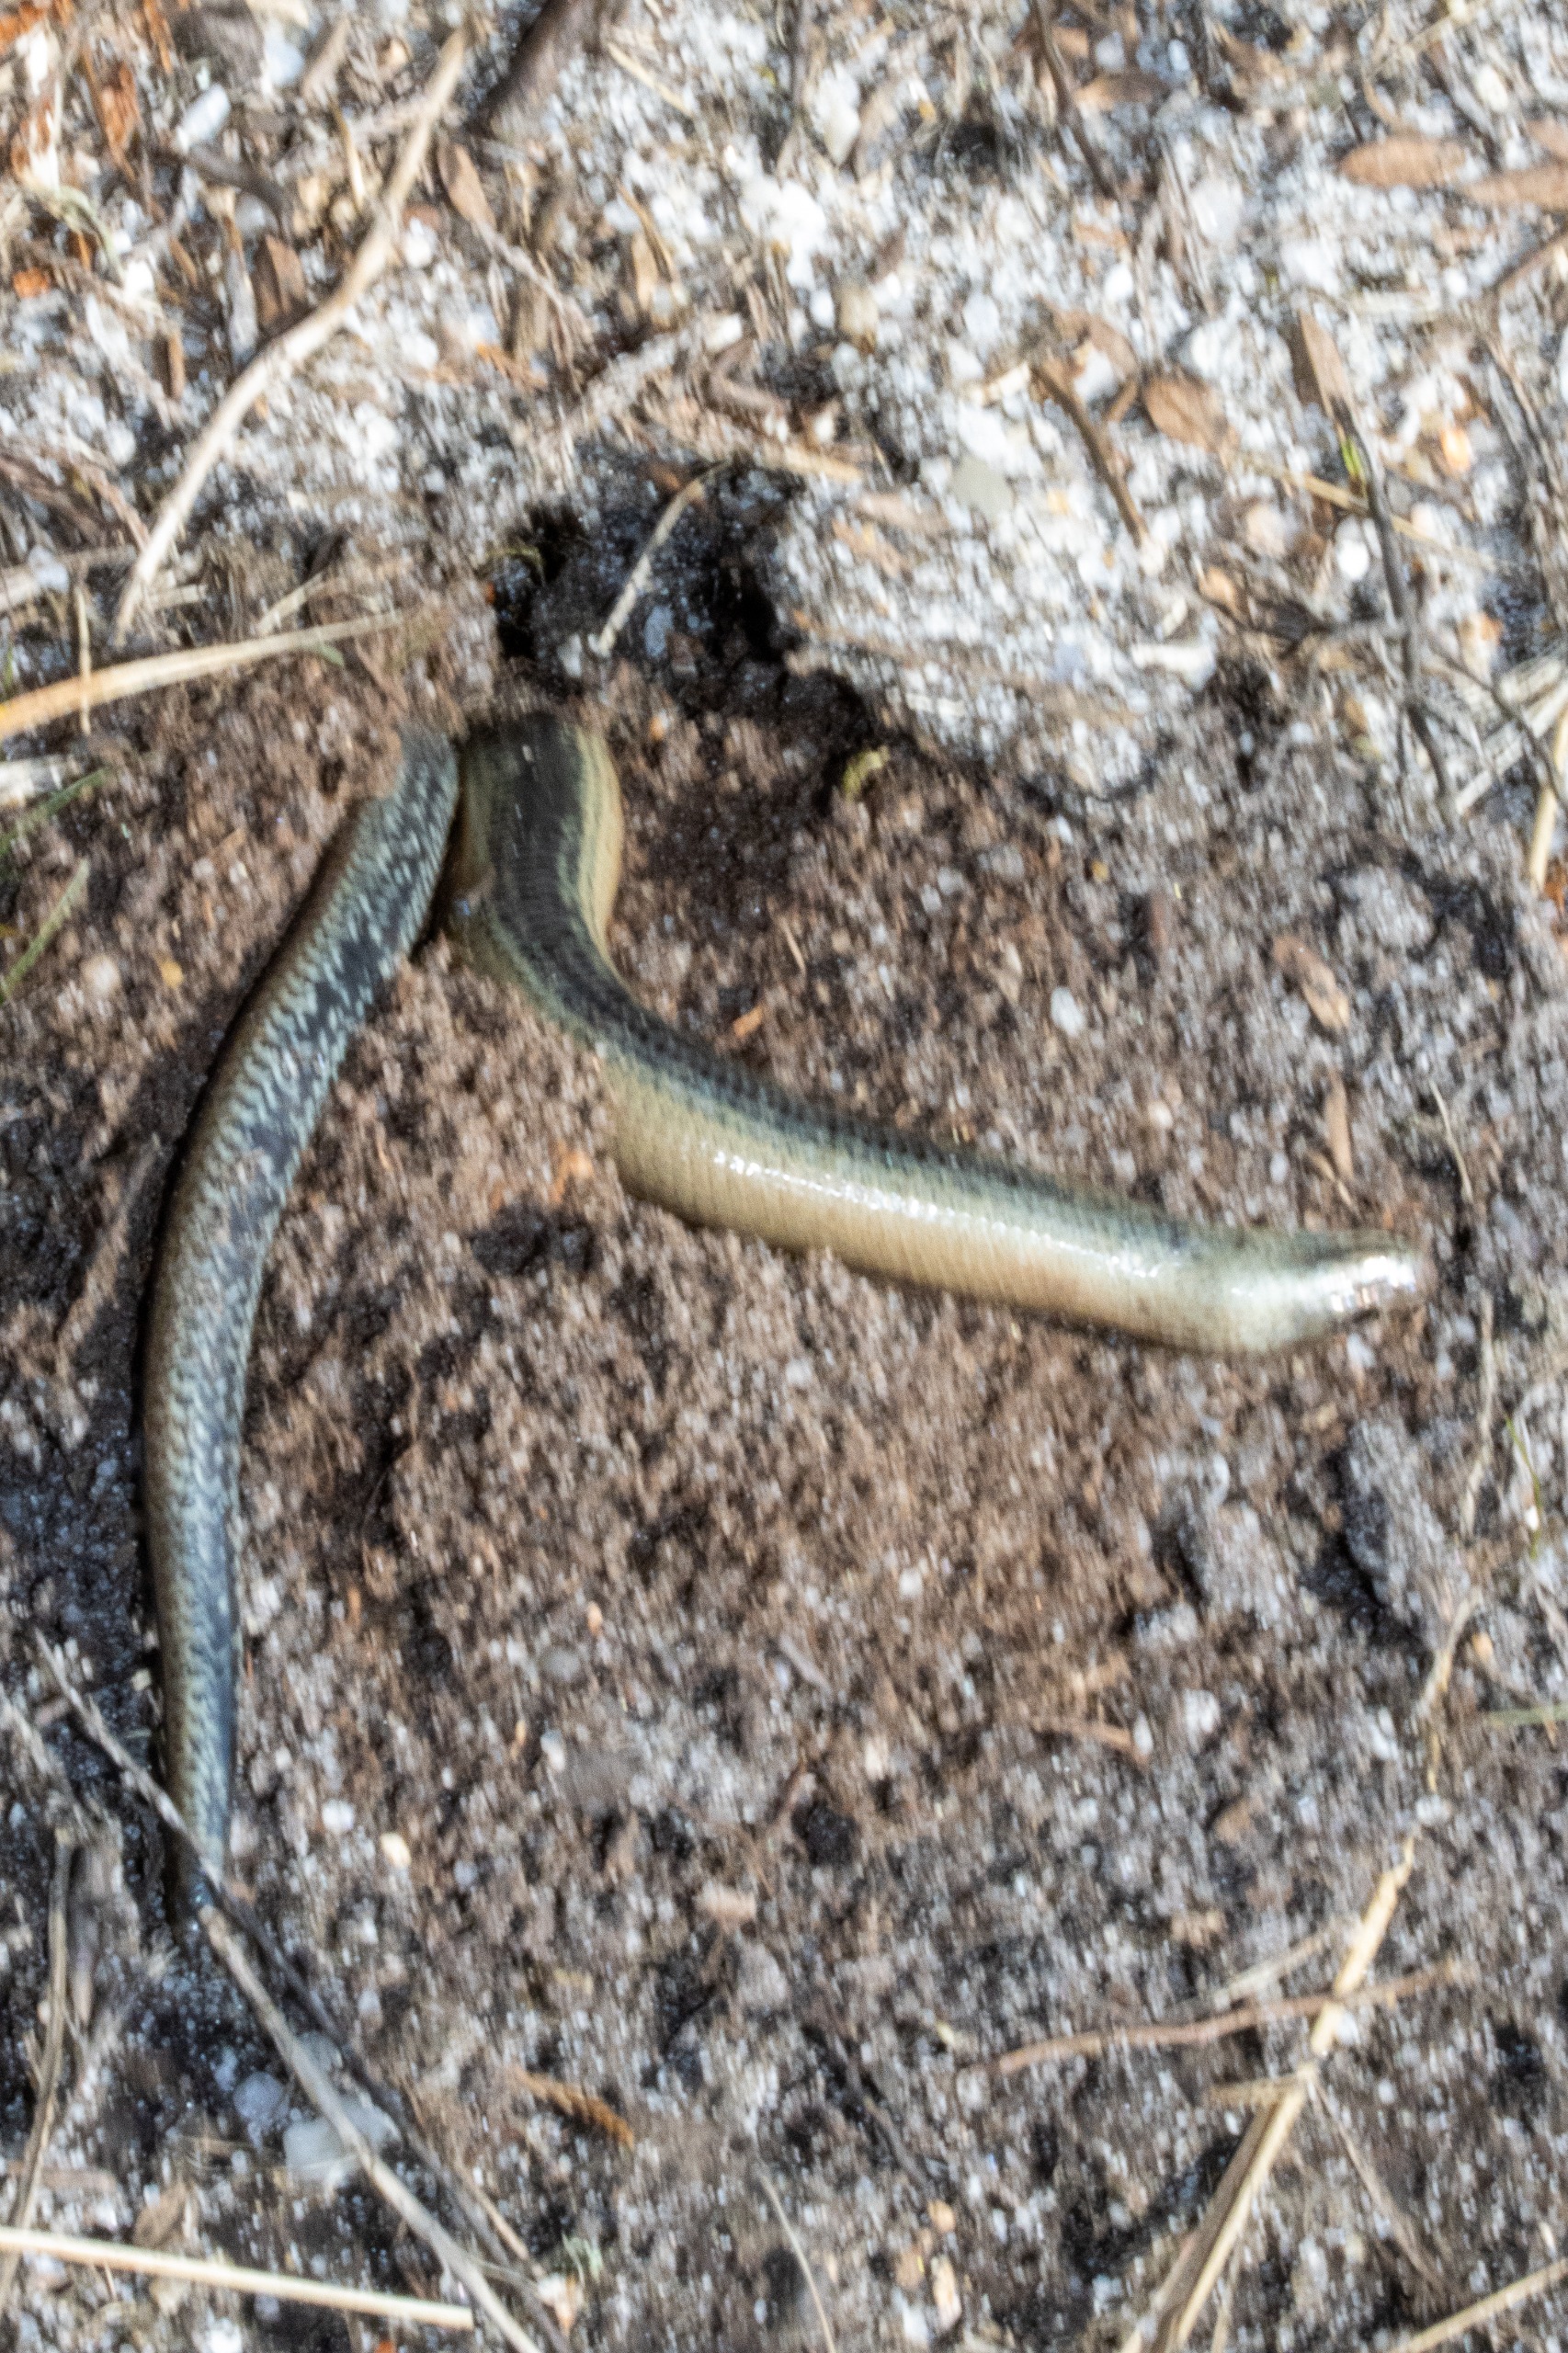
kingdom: Animalia
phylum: Chordata
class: Squamata
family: Anguidae
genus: Anguis
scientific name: Anguis fragilis
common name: Stålorm
